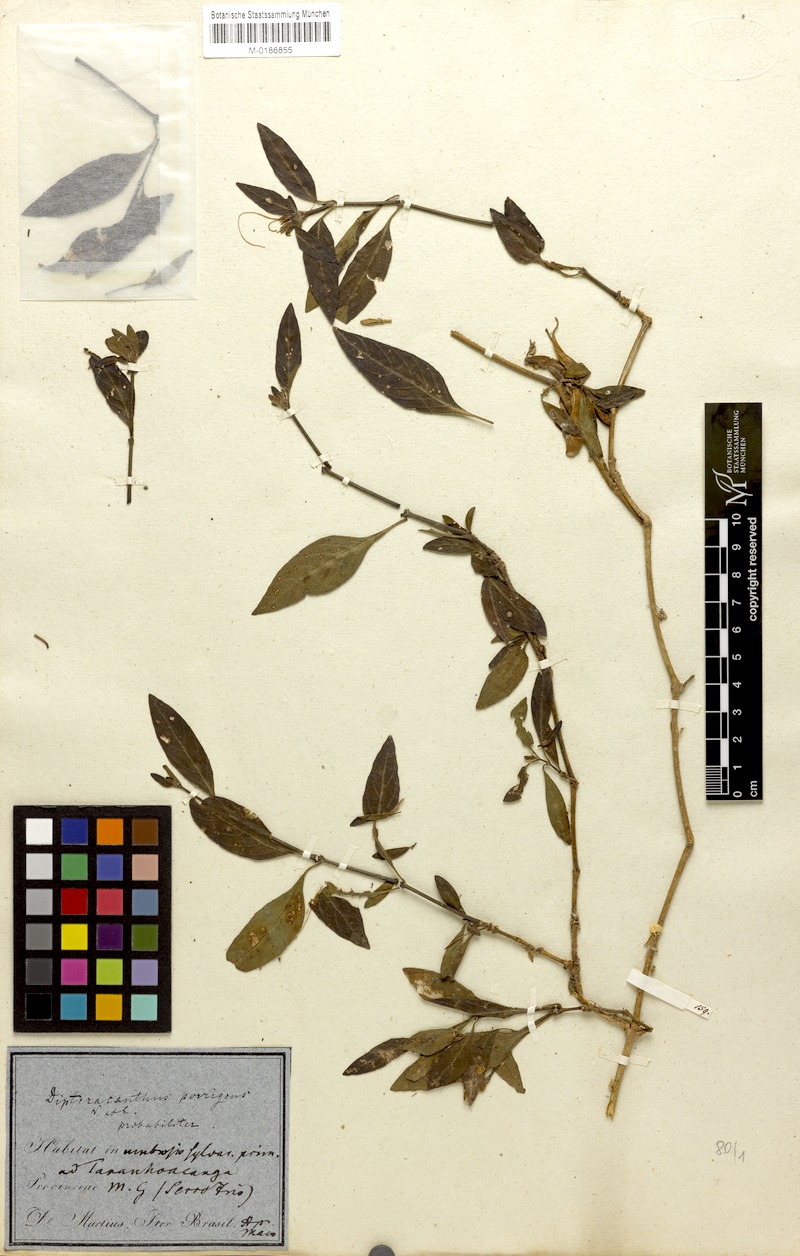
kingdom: Plantae
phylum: Tracheophyta
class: Magnoliopsida
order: Lamiales
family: Acanthaceae
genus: Ruellia
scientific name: Ruellia geminiflora
